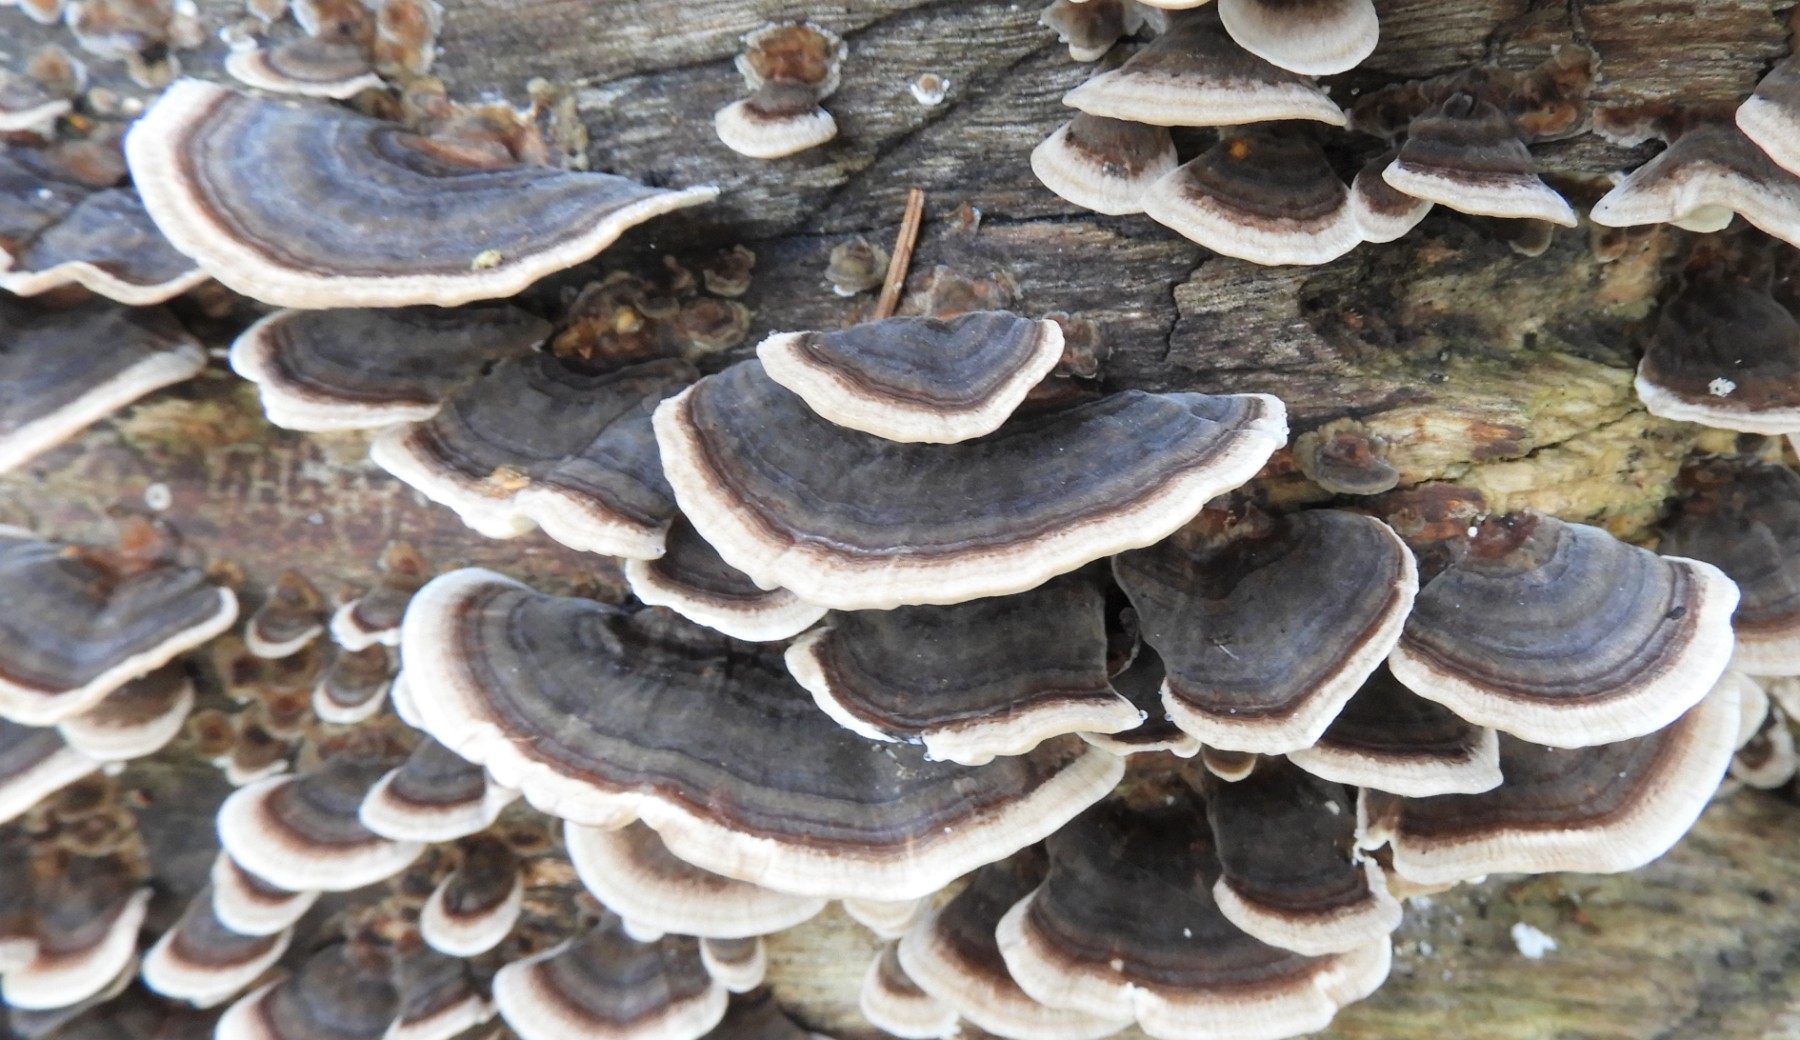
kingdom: Fungi
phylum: Basidiomycota
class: Agaricomycetes
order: Polyporales
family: Polyporaceae
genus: Trametes
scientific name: Trametes versicolor
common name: broget læderporesvamp
